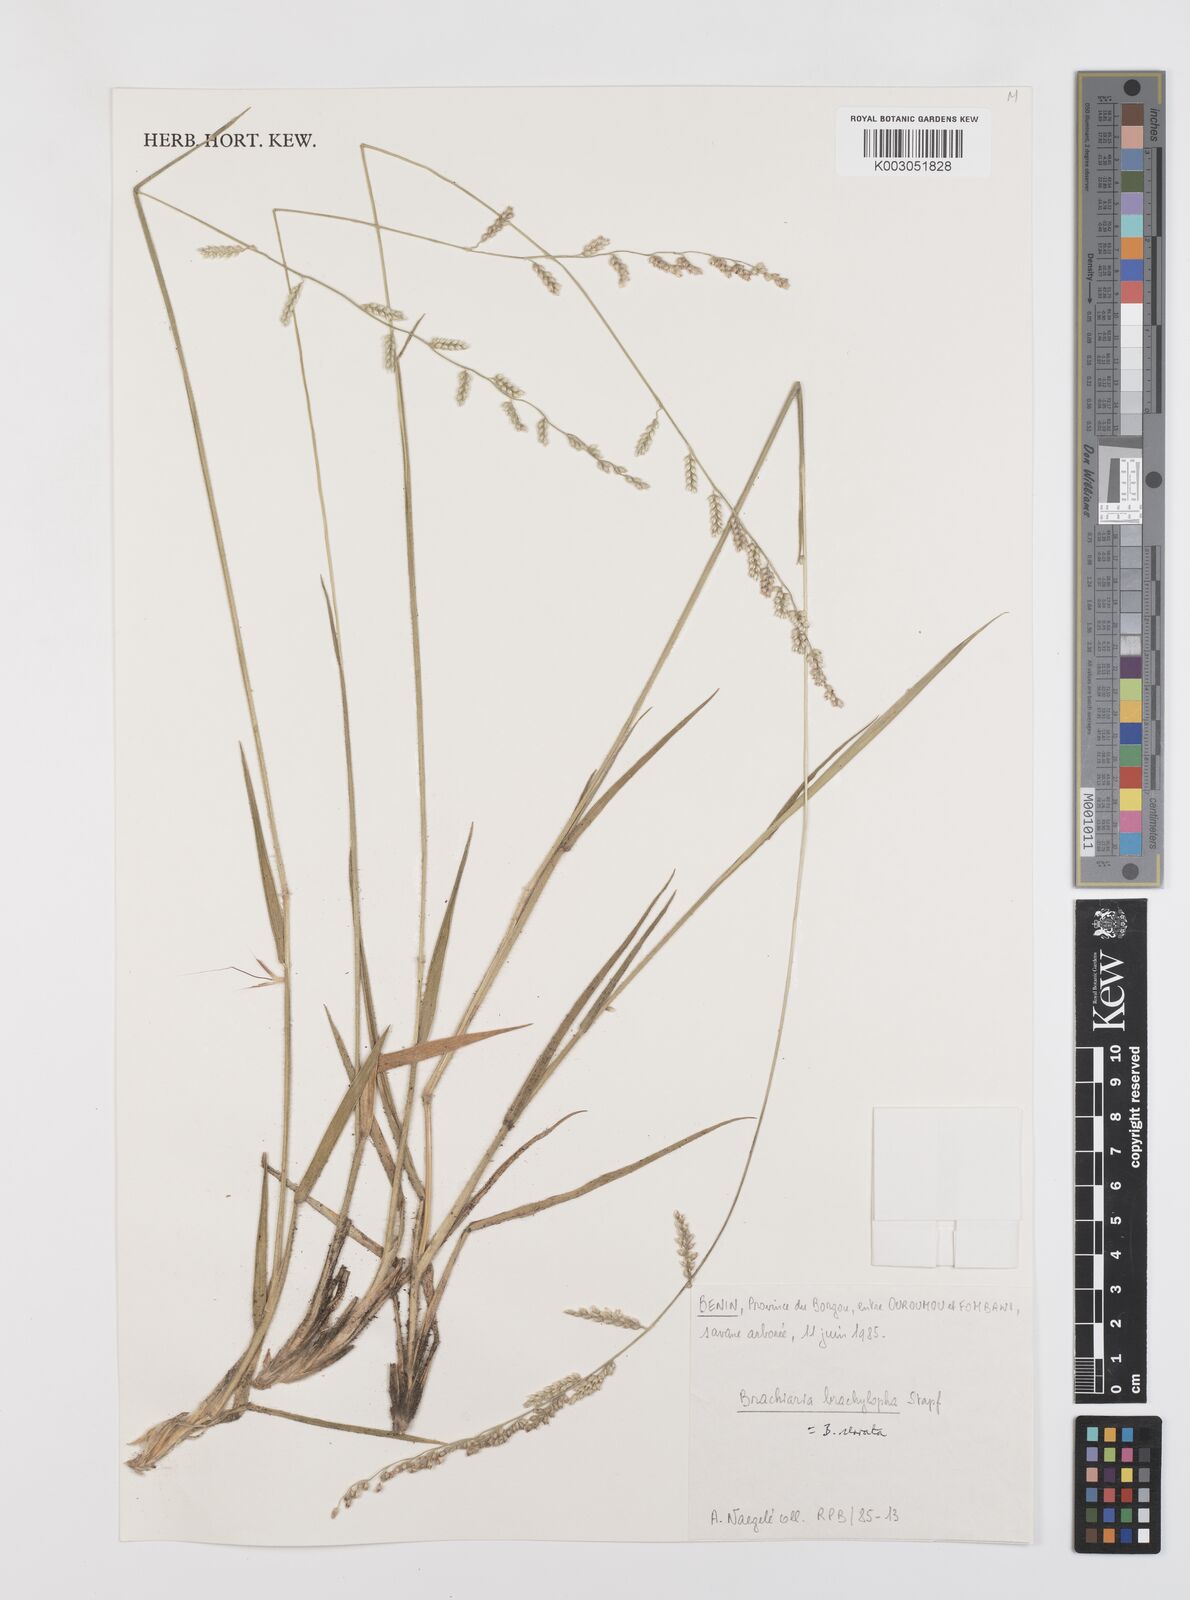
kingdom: Plantae
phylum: Tracheophyta
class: Liliopsida
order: Poales
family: Poaceae
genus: Urochloa
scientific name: Urochloa serrata
